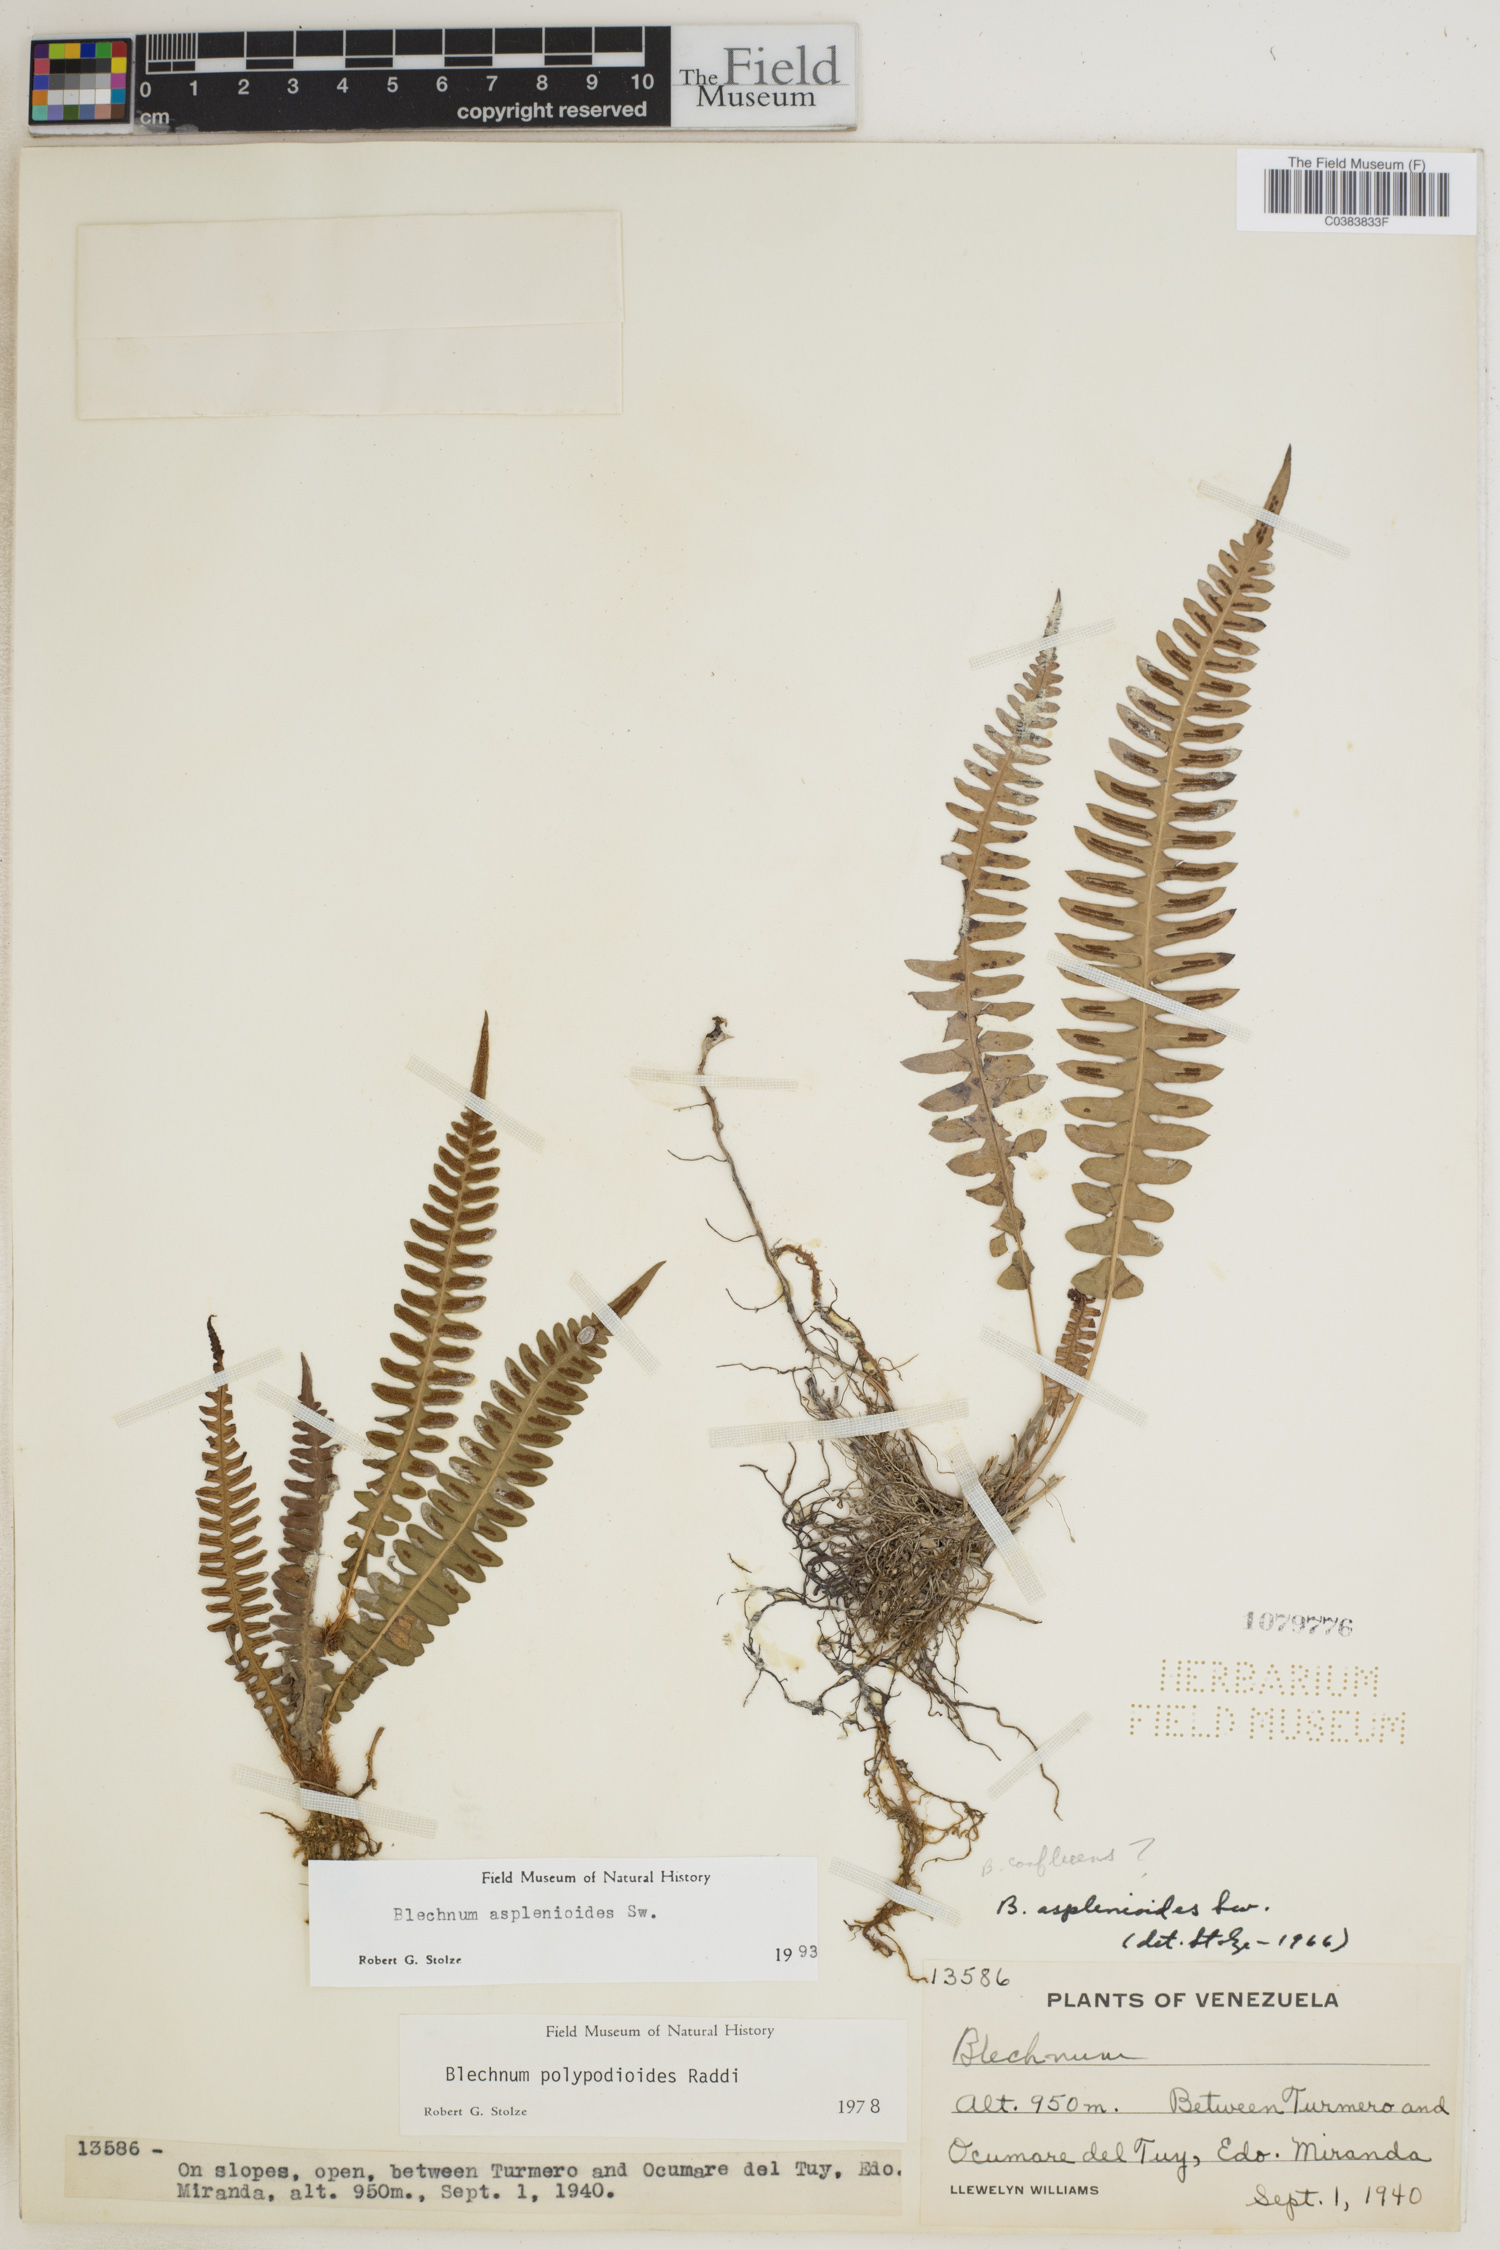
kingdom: Plantae
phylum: Tracheophyta
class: Polypodiopsida
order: Polypodiales
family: Blechnaceae
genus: Blechnum
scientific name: Blechnum asplenioides
